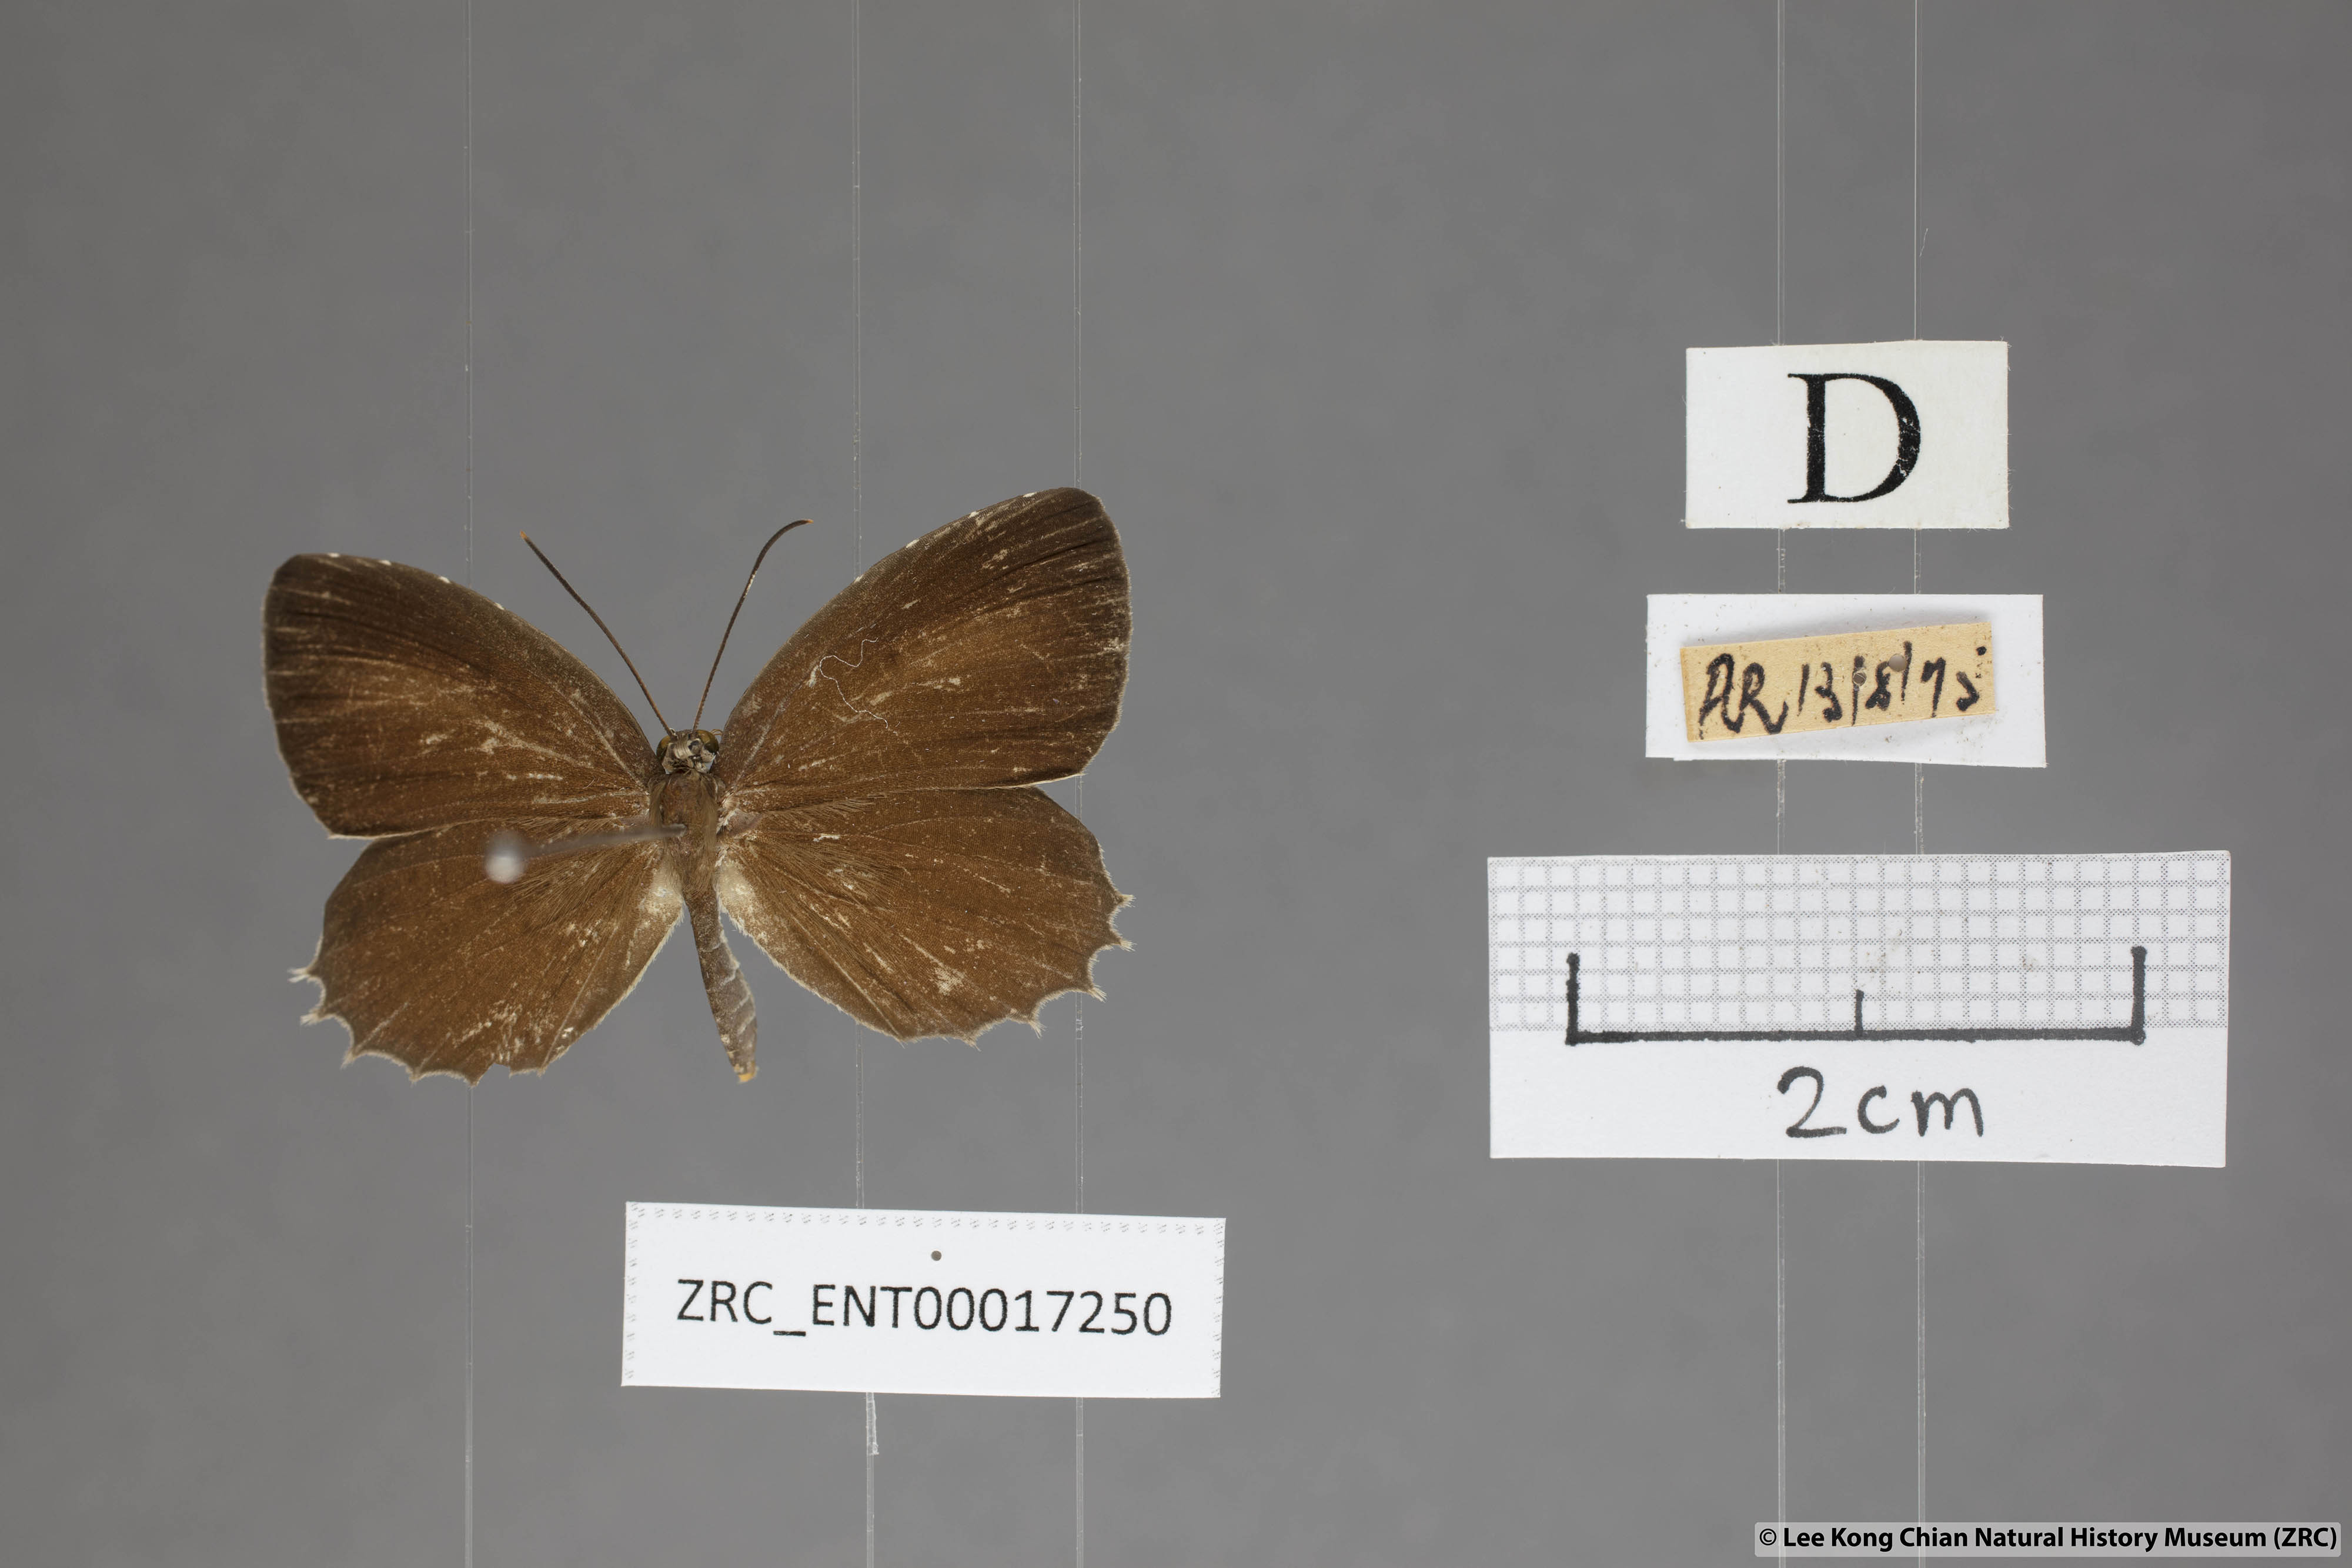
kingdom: Animalia
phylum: Arthropoda
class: Insecta
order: Lepidoptera
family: Lycaenidae
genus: Allotinus
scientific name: Allotinus horsfieldi
